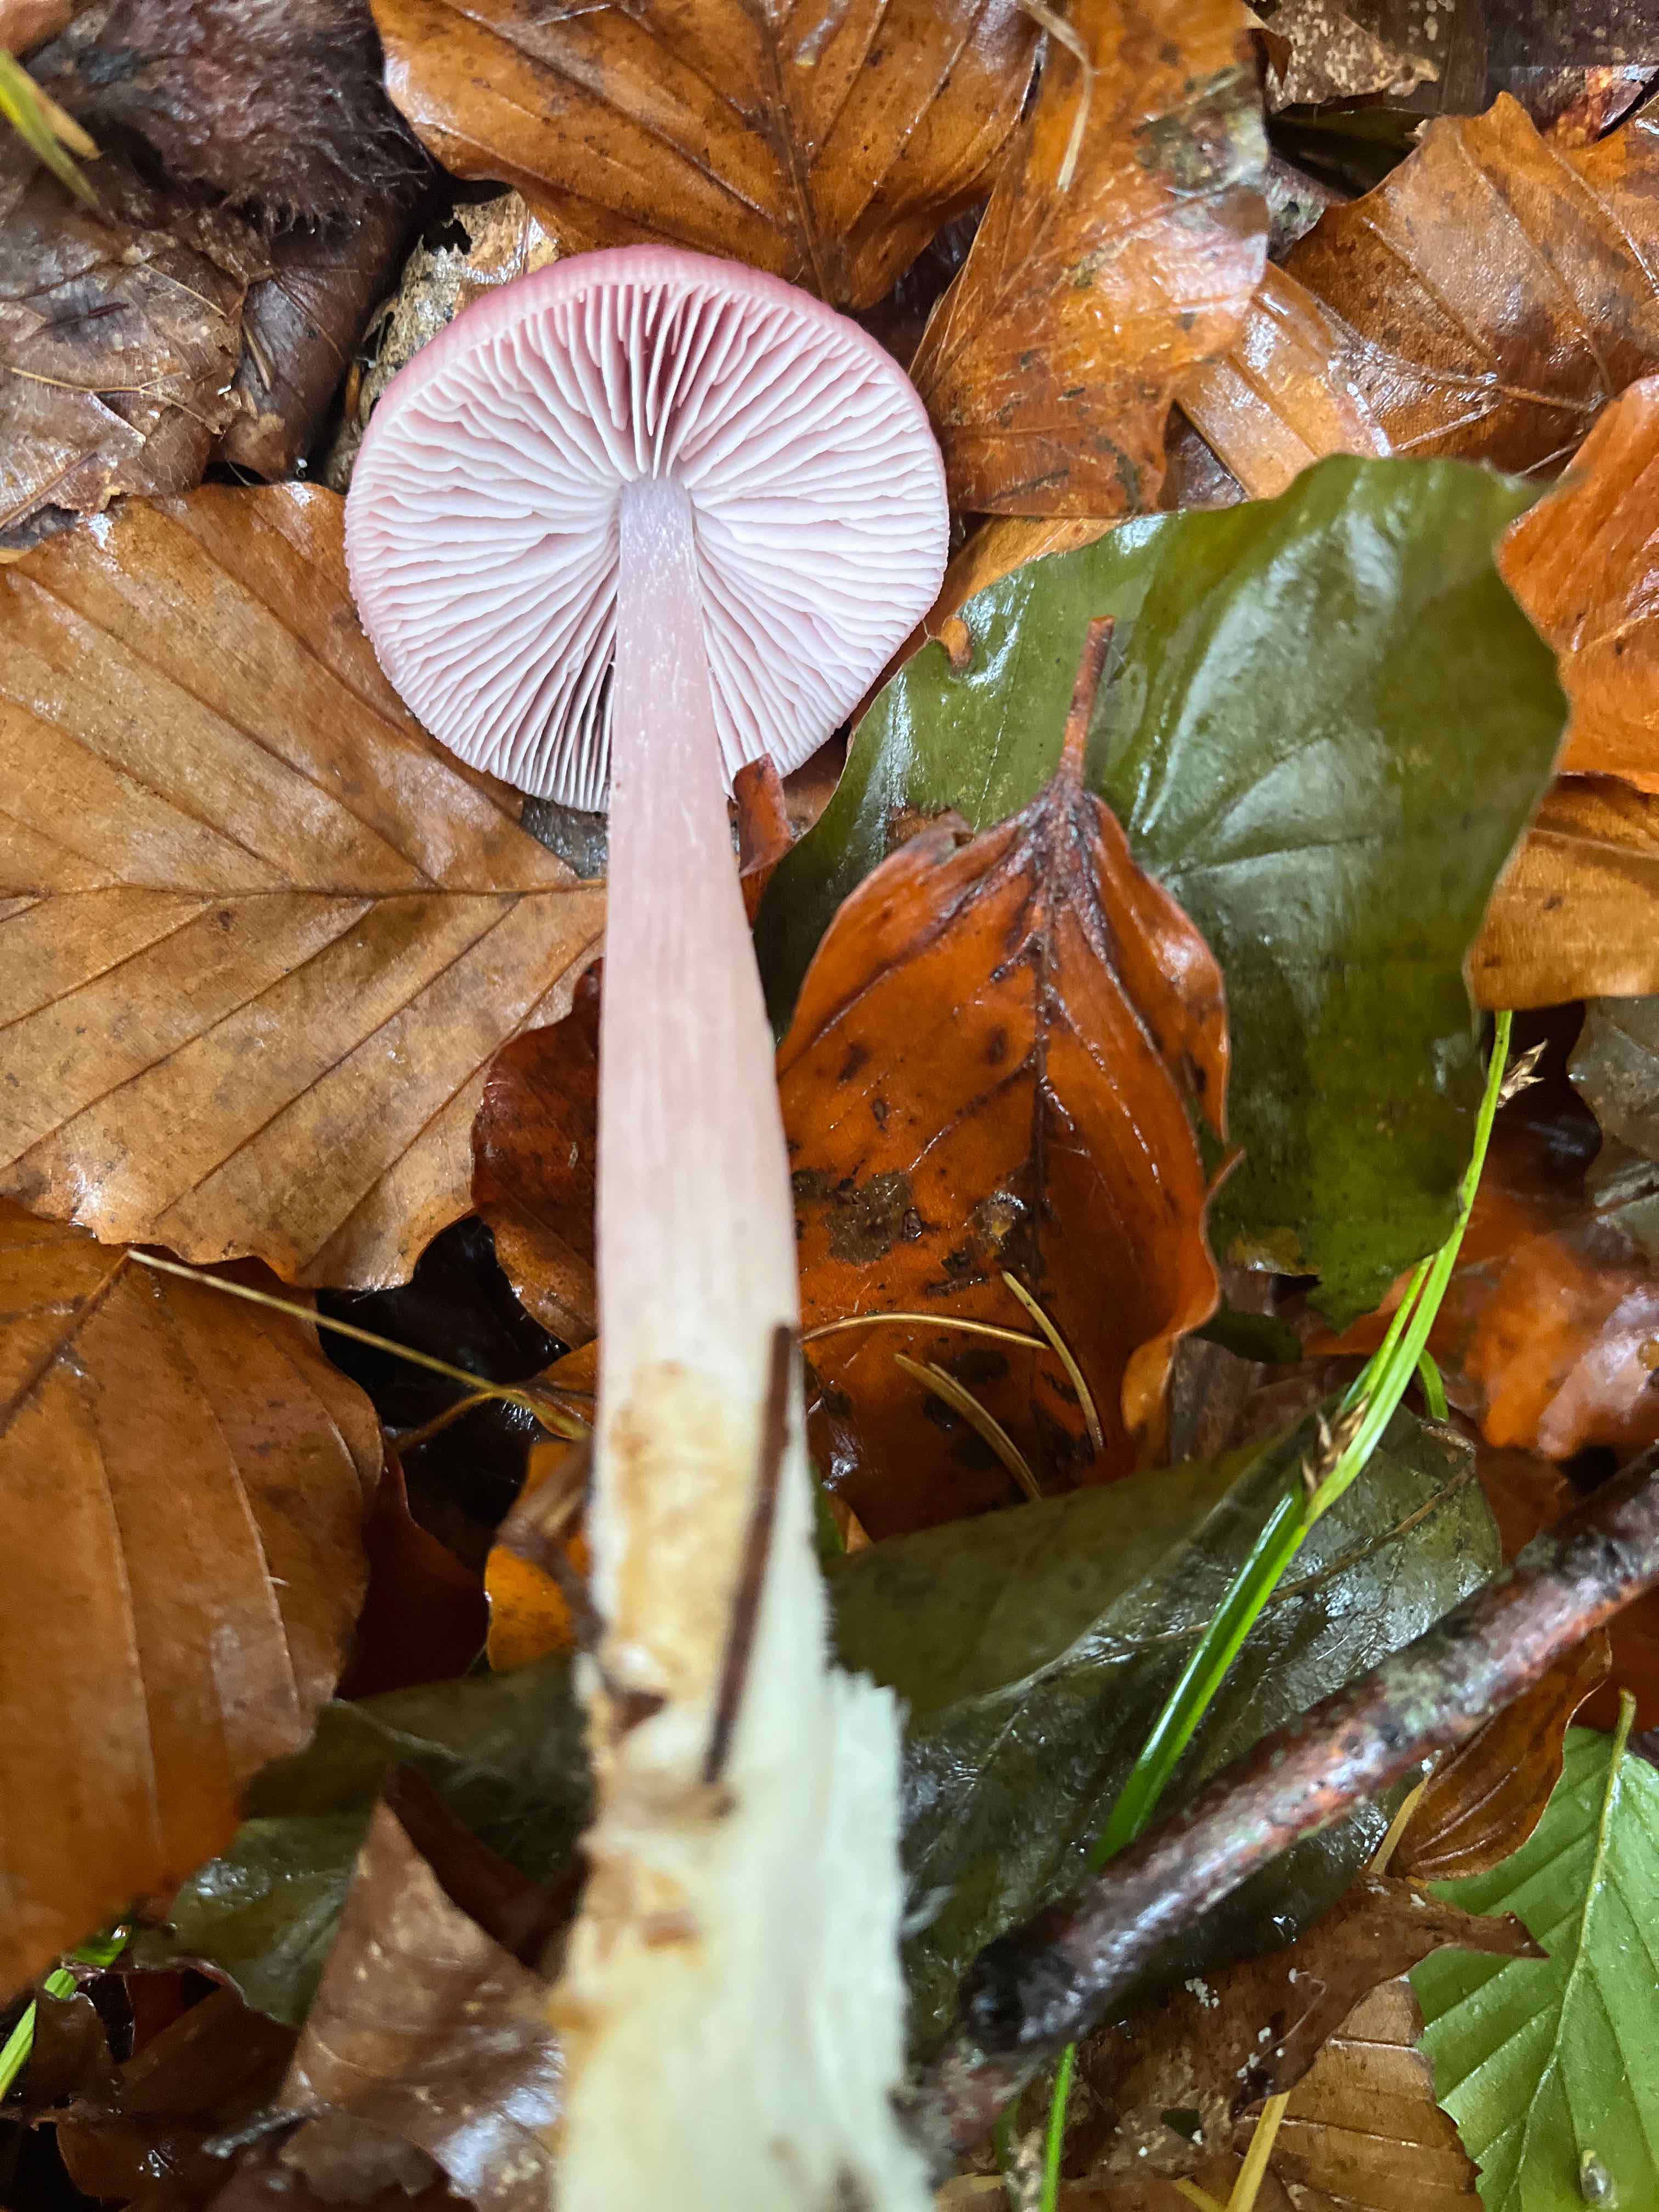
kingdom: Fungi
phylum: Basidiomycota
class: Agaricomycetes
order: Agaricales
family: Mycenaceae
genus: Mycena
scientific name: Mycena rosea
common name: rosa huesvamp
